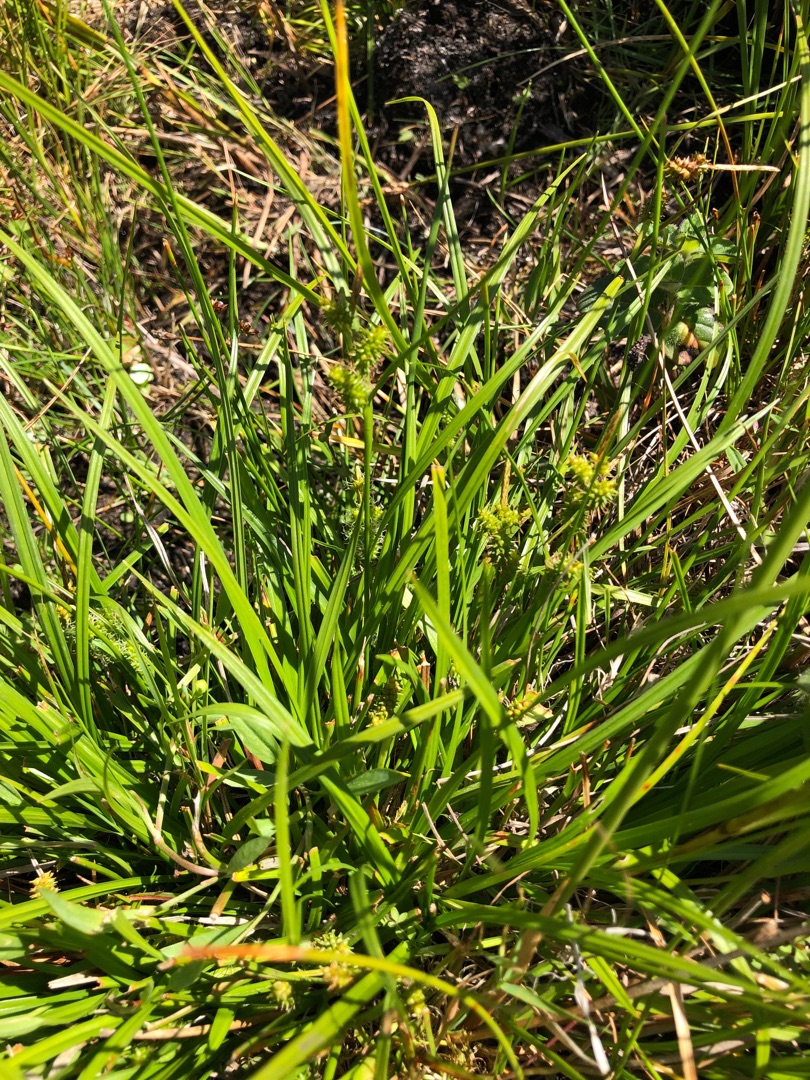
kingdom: Plantae
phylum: Tracheophyta
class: Liliopsida
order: Poales
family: Cyperaceae
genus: Carex
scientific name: Carex oederi
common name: Dværg-star
